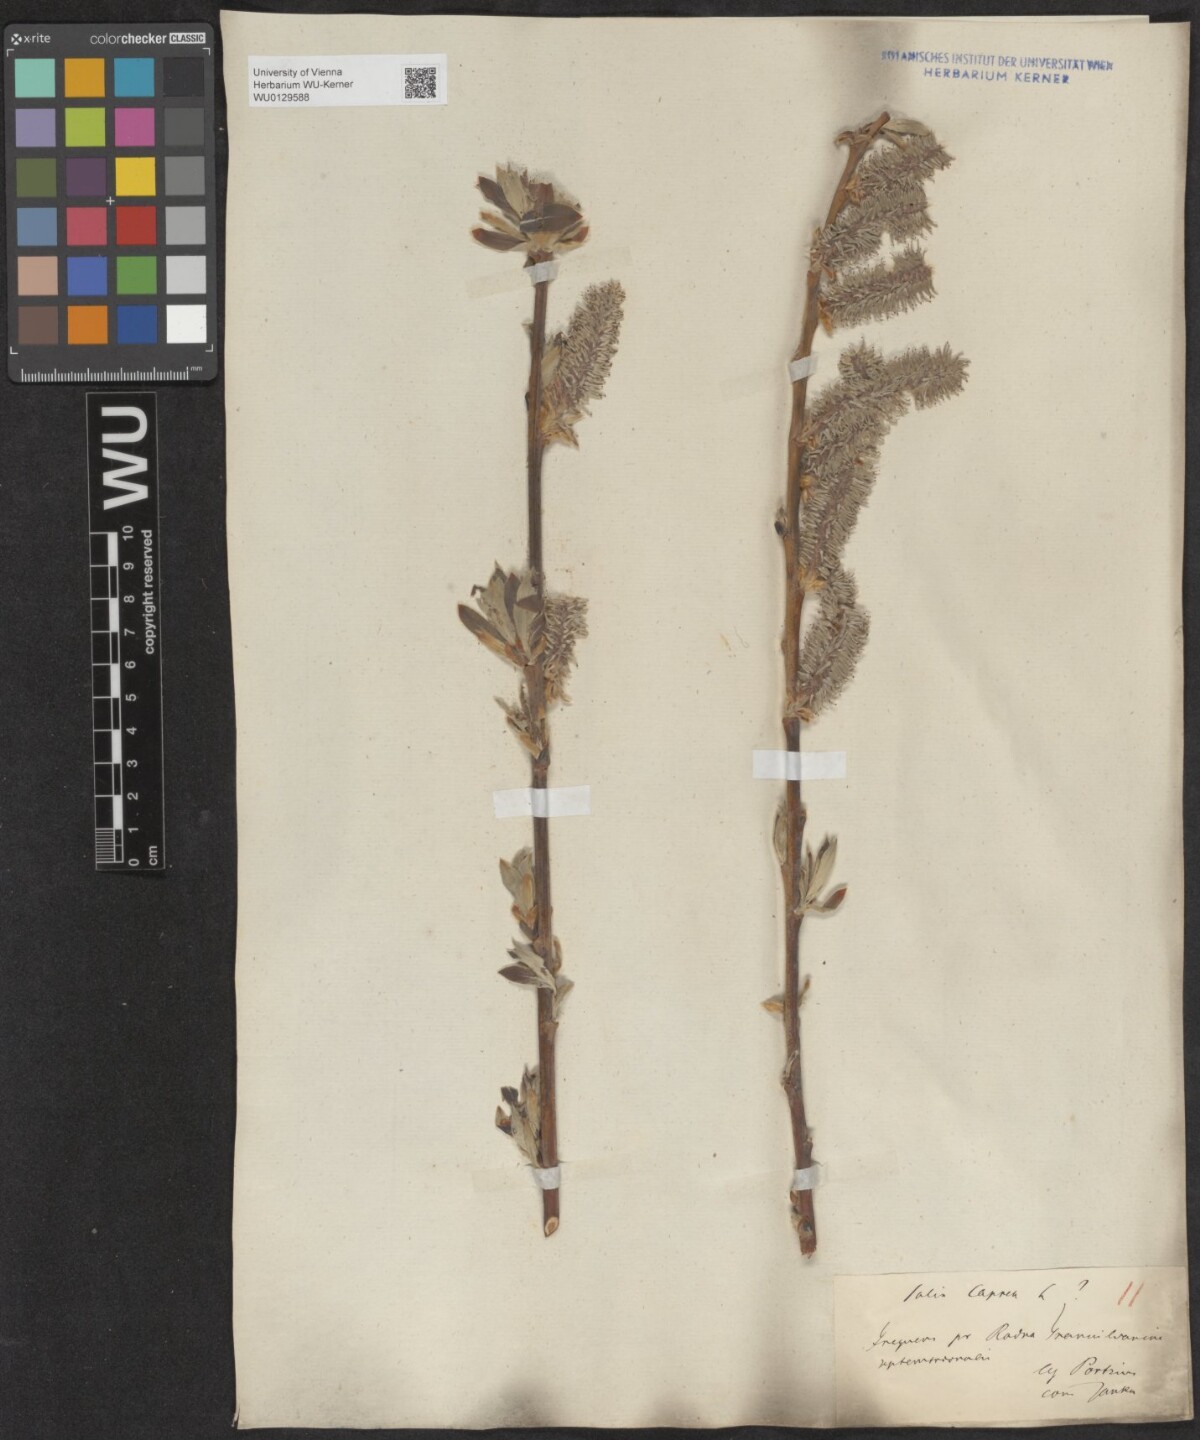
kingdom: Plantae
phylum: Tracheophyta
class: Magnoliopsida
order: Malpighiales
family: Salicaceae
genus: Salix
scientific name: Salix caprea
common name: Goat willow
